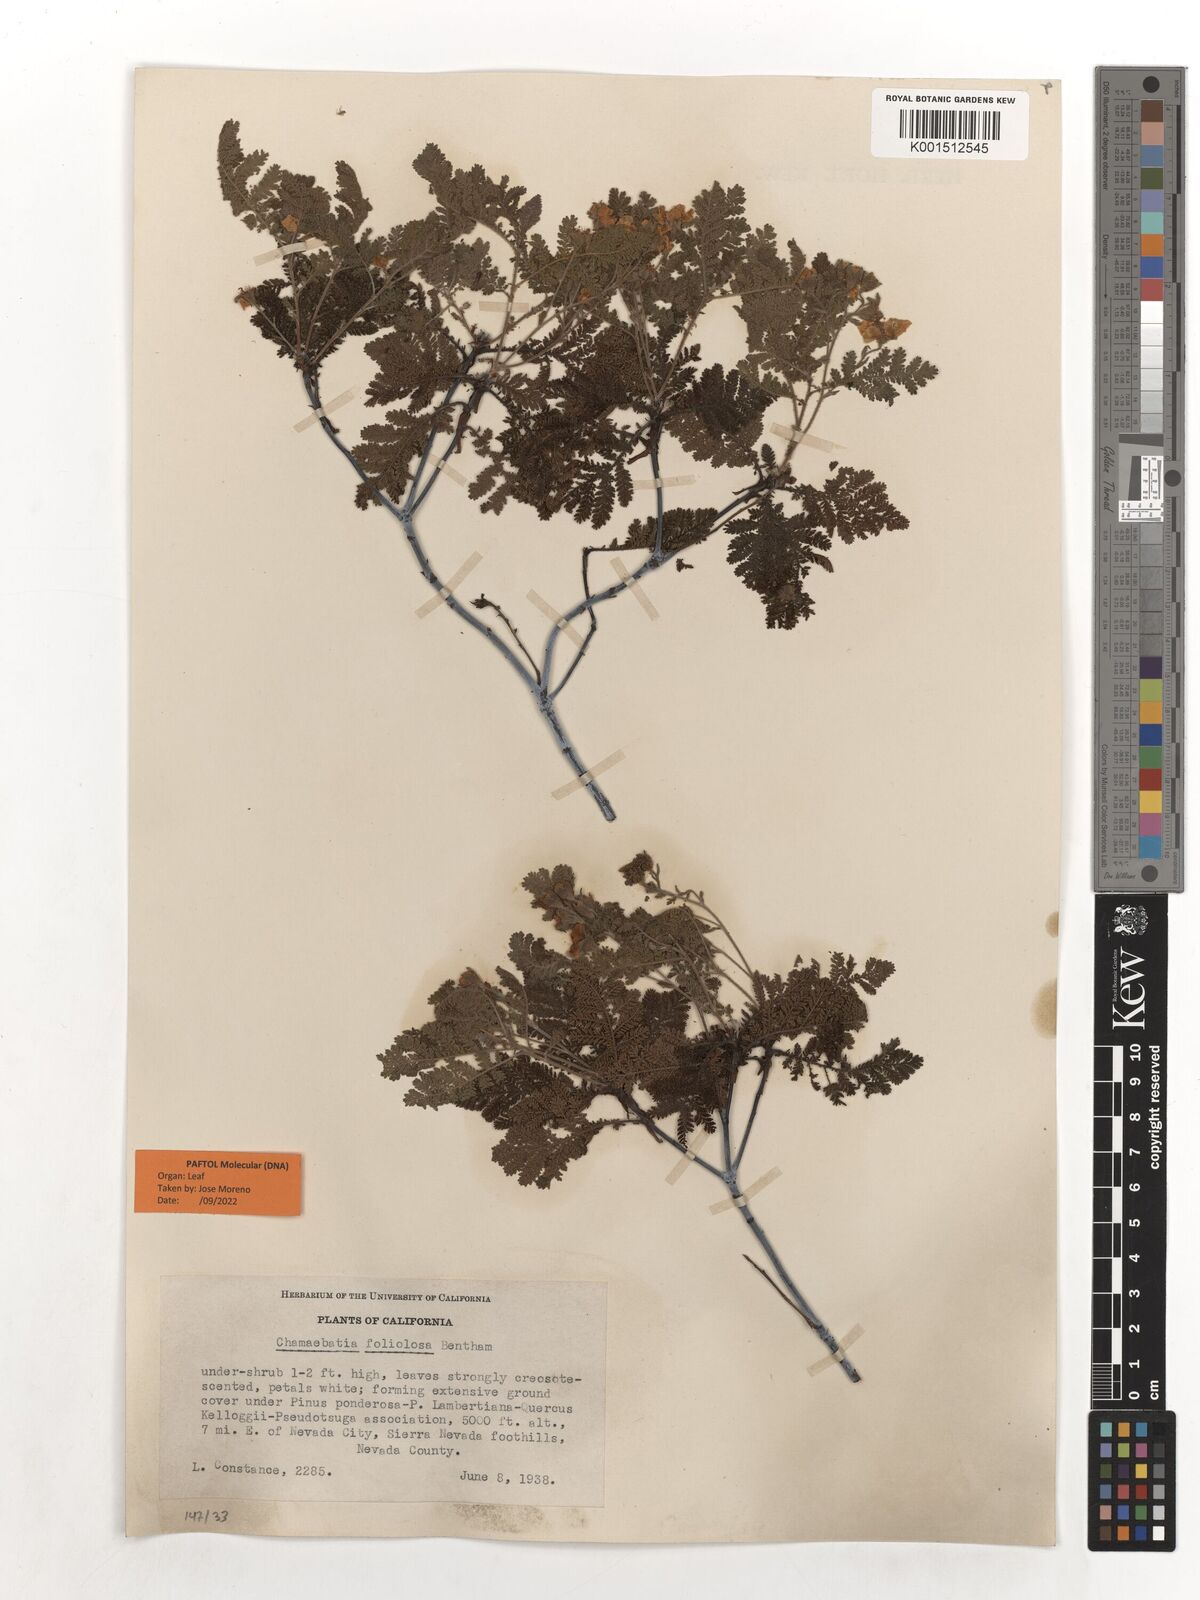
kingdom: Plantae
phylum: Tracheophyta
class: Magnoliopsida
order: Rosales
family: Rosaceae
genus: Chamaebatia
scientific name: Chamaebatia foliolosa
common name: Mountain misery
